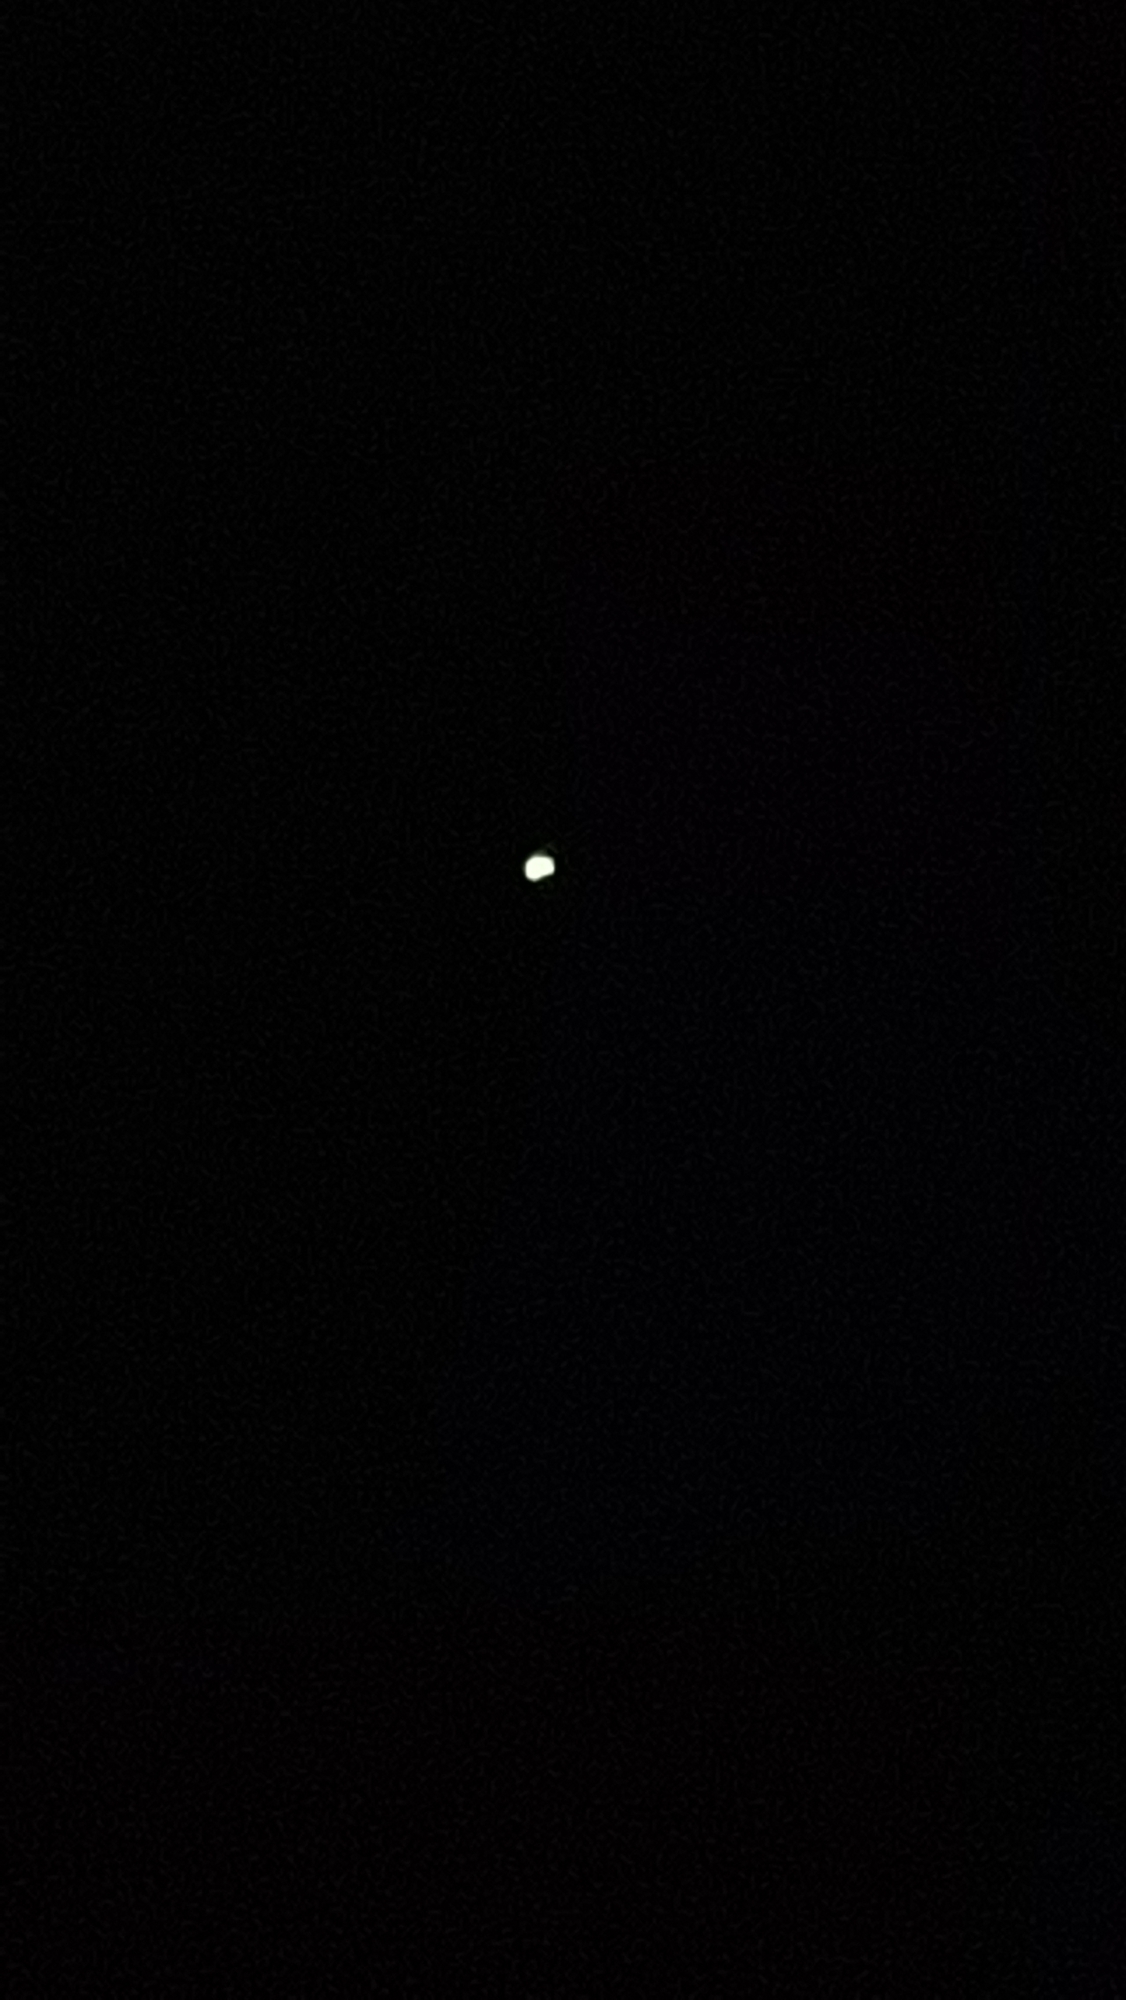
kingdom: Animalia
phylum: Arthropoda
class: Insecta
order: Coleoptera
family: Lampyridae
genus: Lampyris
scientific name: Lampyris noctiluca
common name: Sankthansorm
